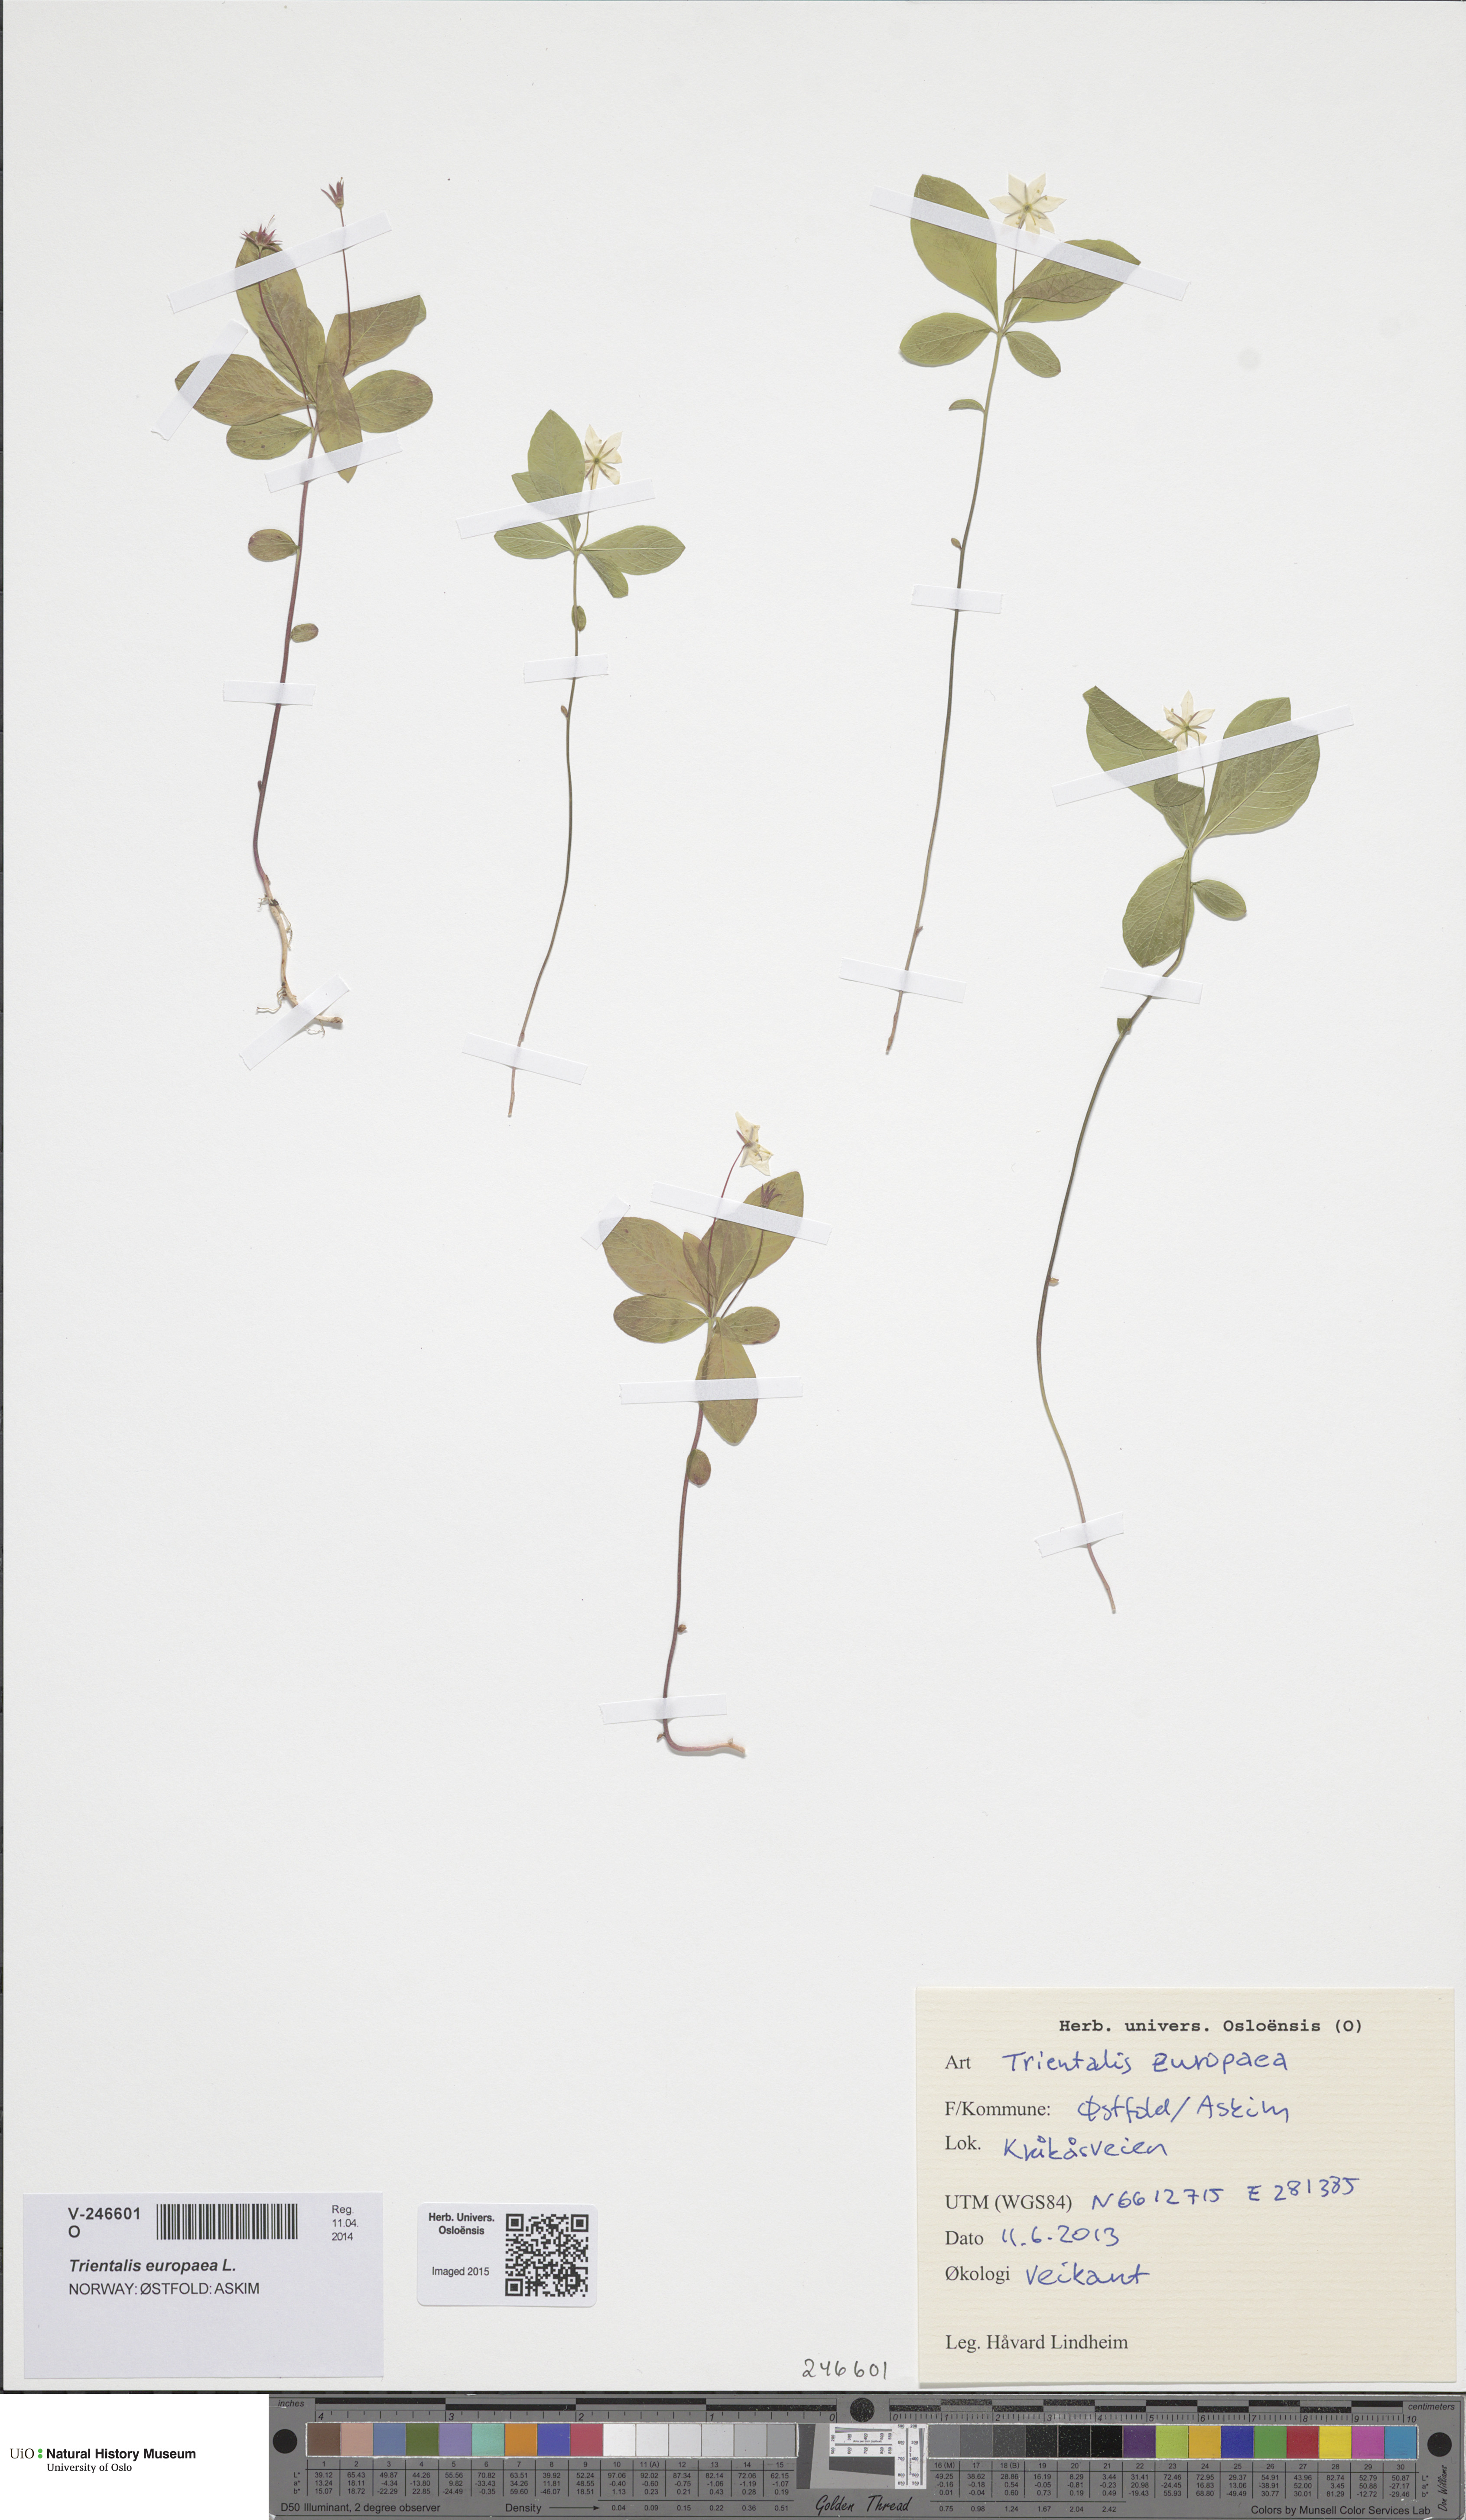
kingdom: Plantae
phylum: Tracheophyta
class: Magnoliopsida
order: Ericales
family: Primulaceae
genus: Lysimachia
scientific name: Lysimachia europaea
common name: Arctic starflower
